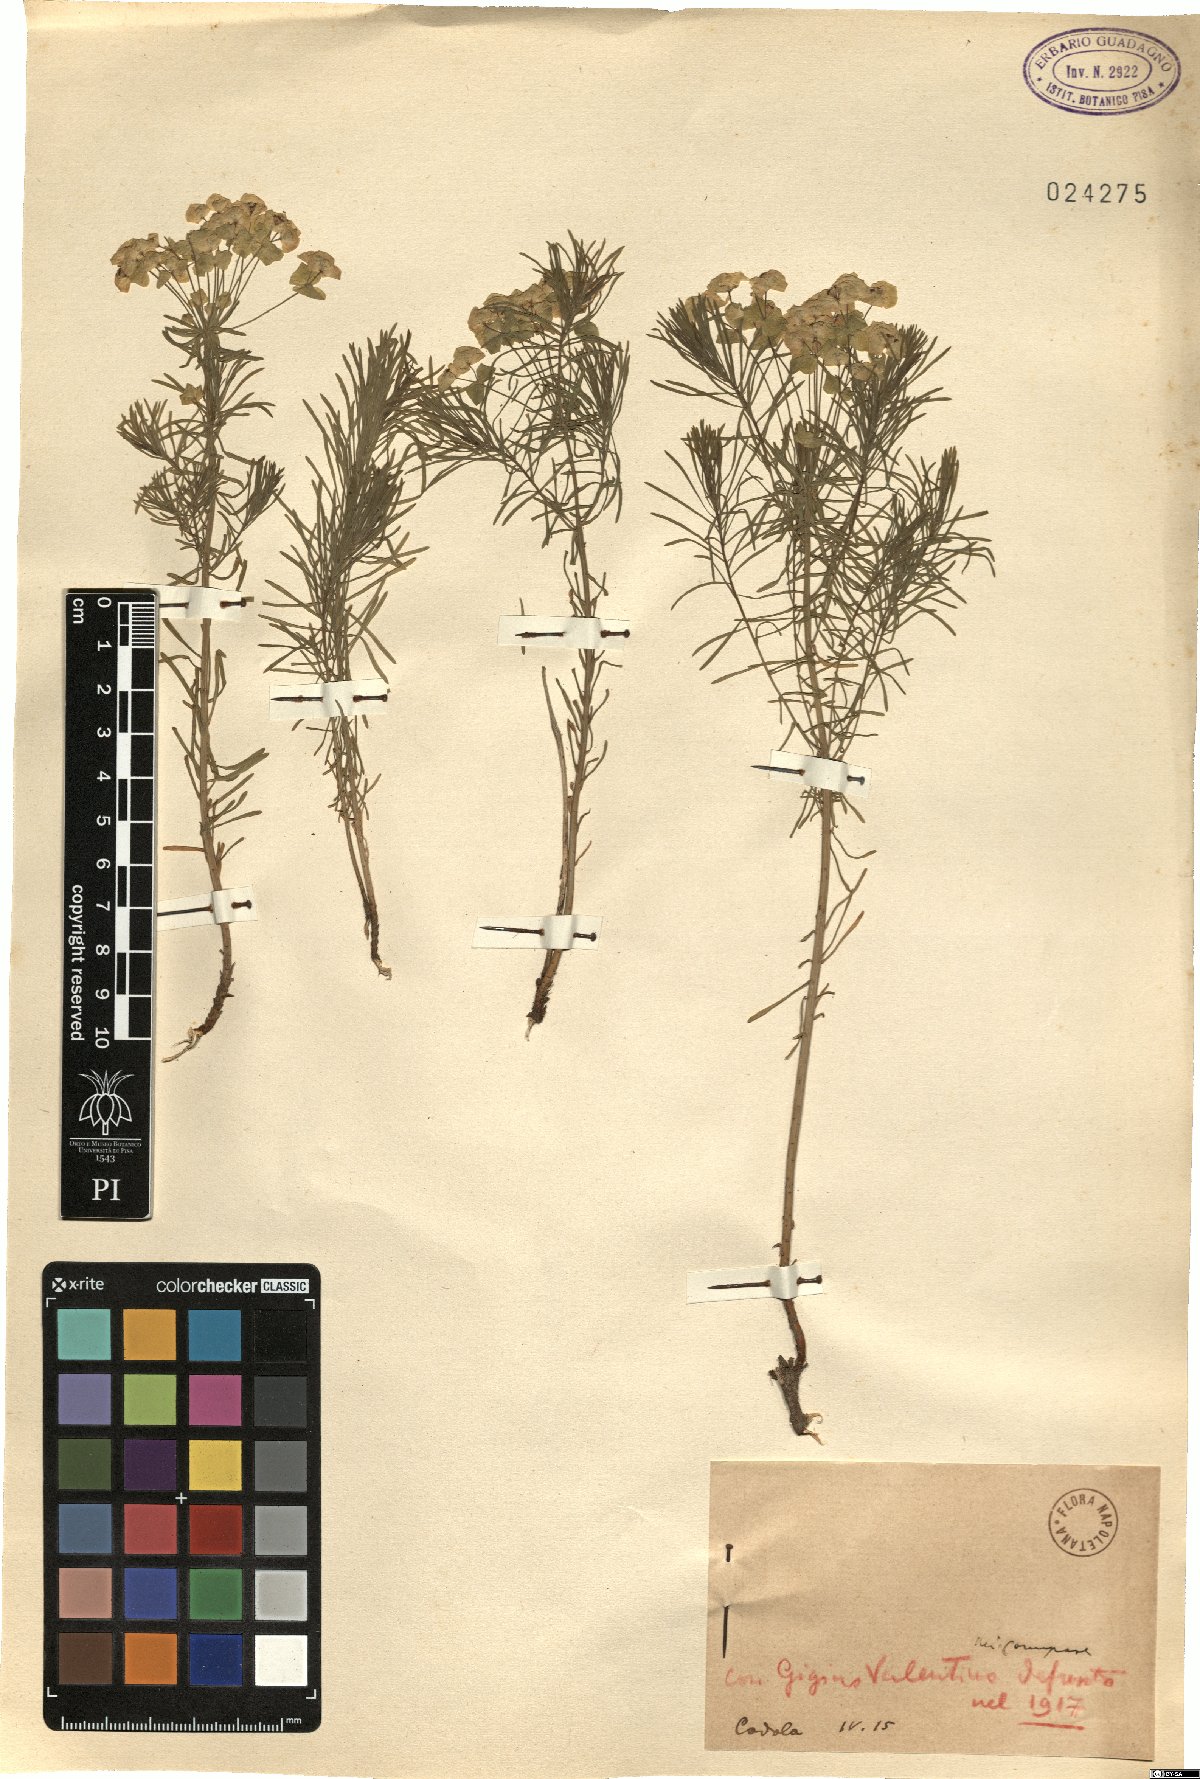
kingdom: Plantae
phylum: Tracheophyta
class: Magnoliopsida
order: Malpighiales
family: Euphorbiaceae
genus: Euphorbia
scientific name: Euphorbia
